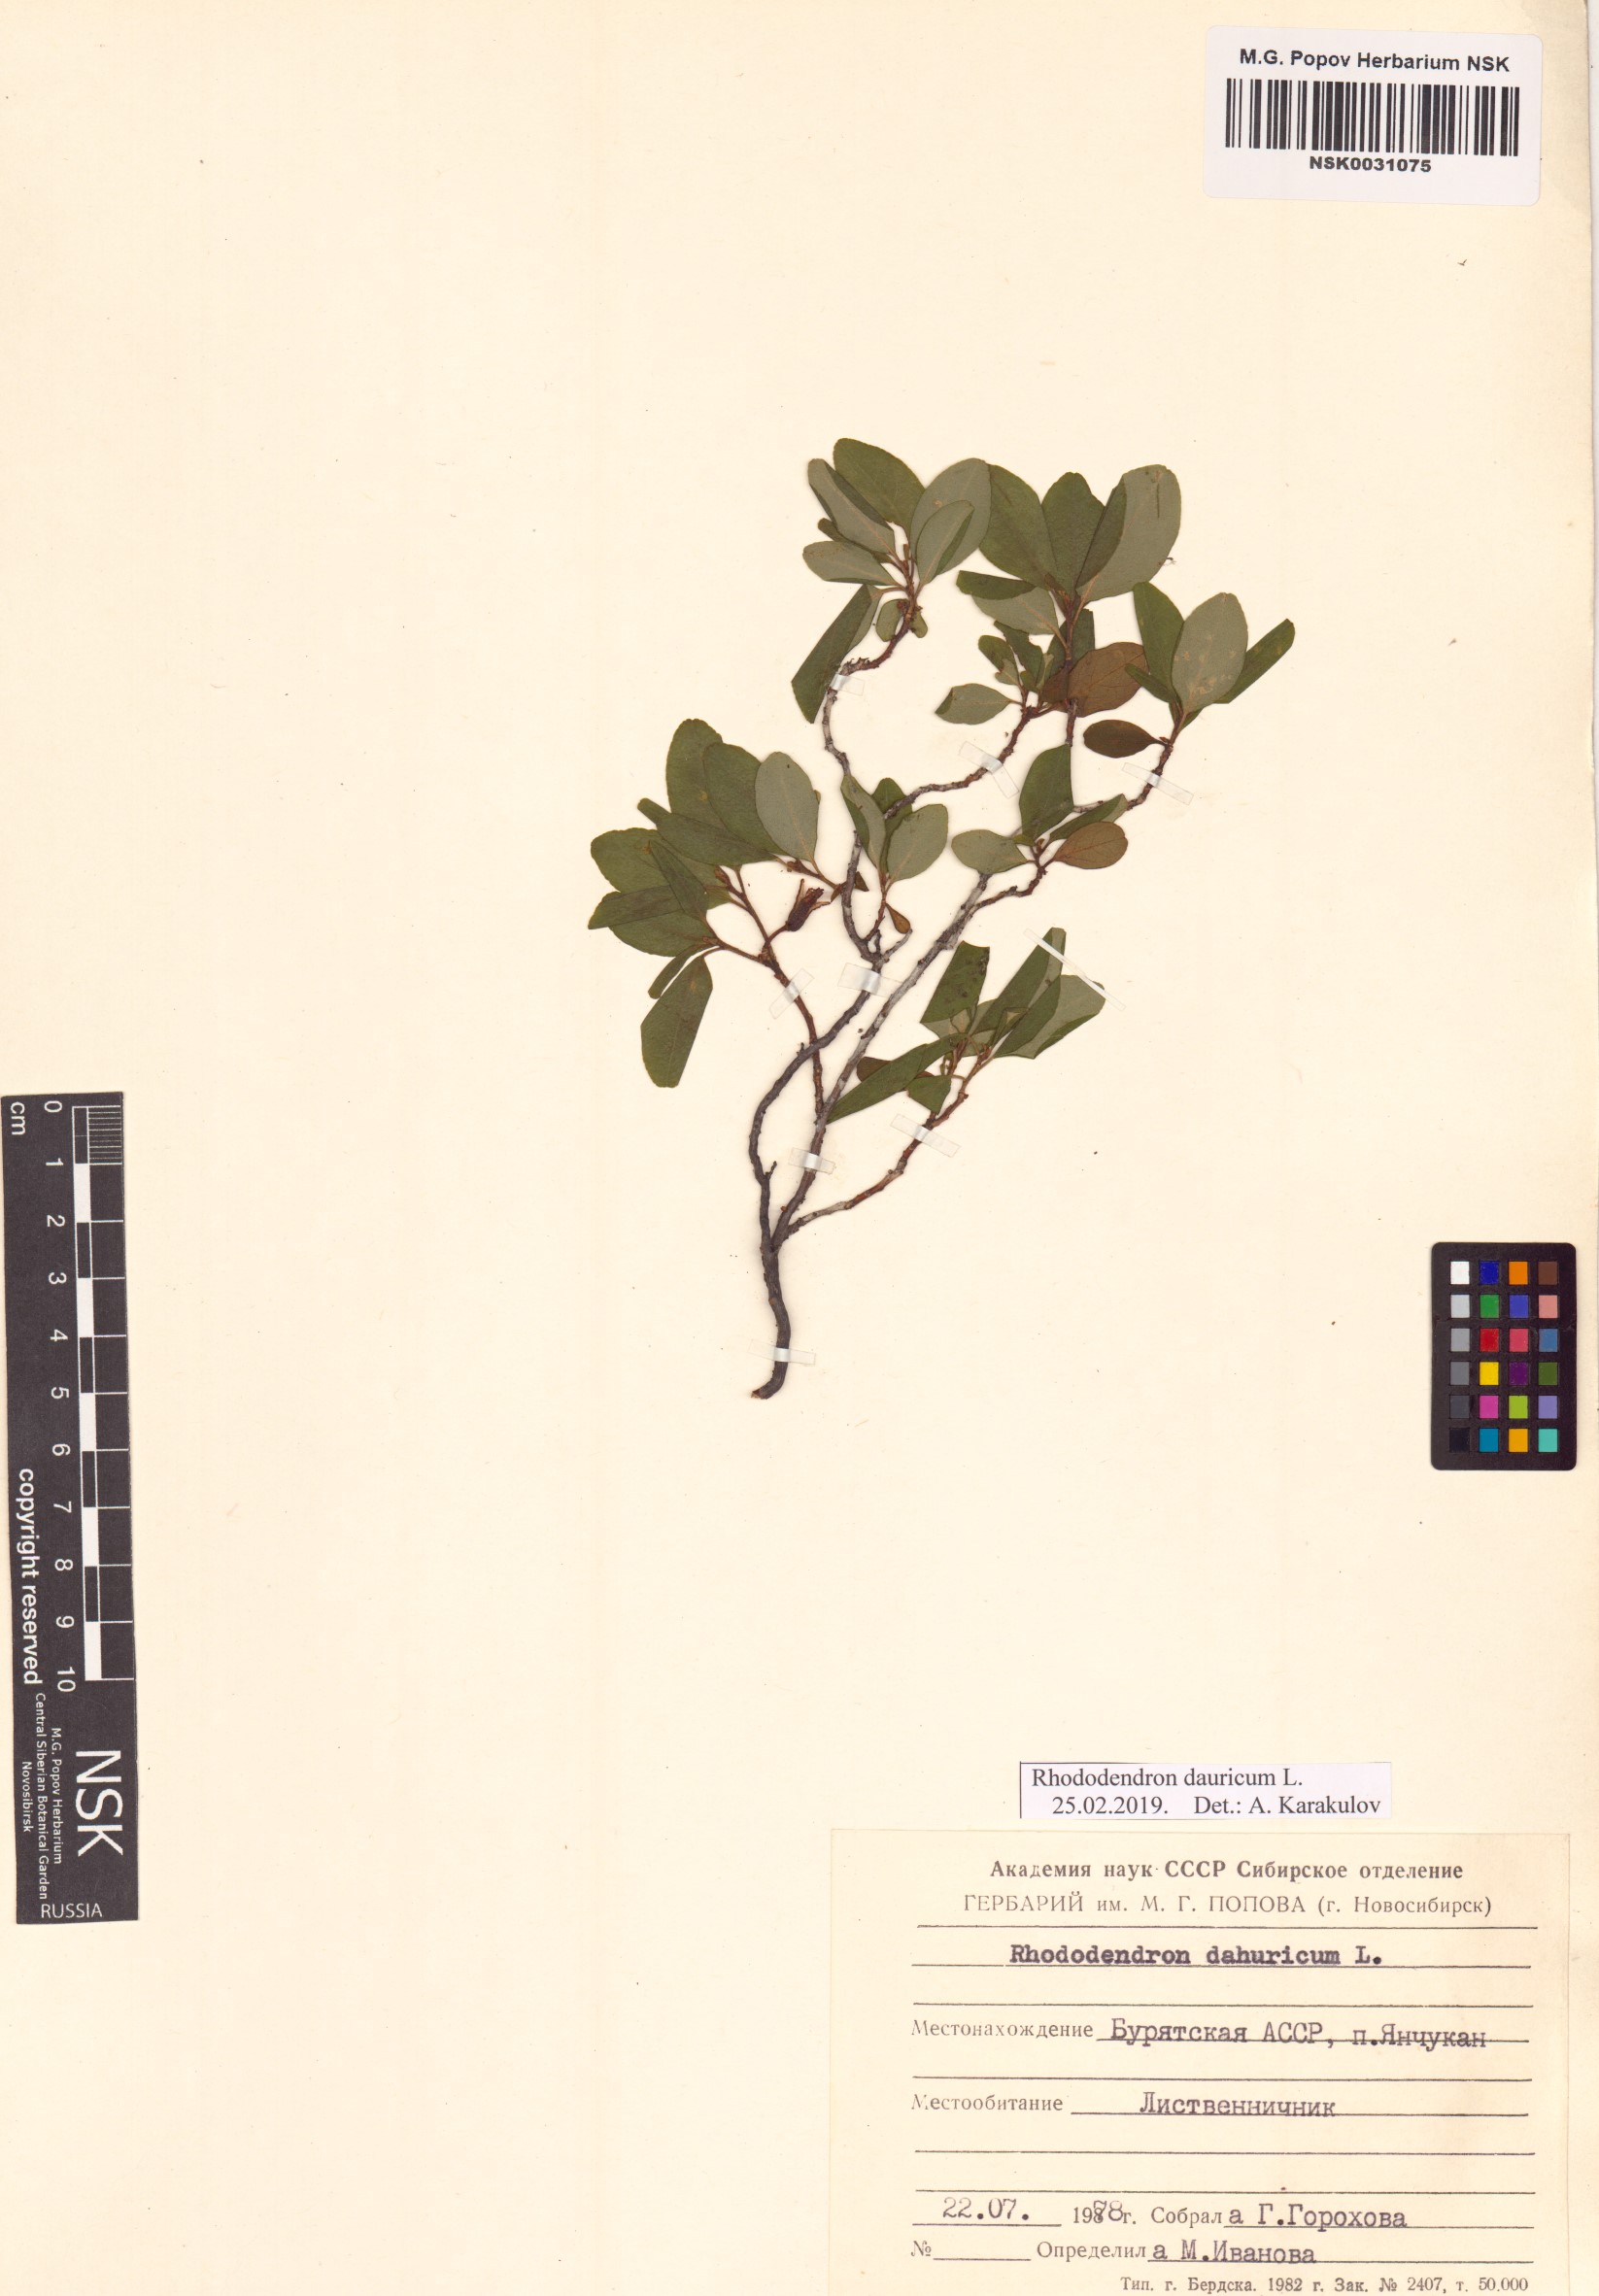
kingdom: Plantae
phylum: Tracheophyta
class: Magnoliopsida
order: Ericales
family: Ericaceae
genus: Rhododendron
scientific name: Rhododendron dauricum
